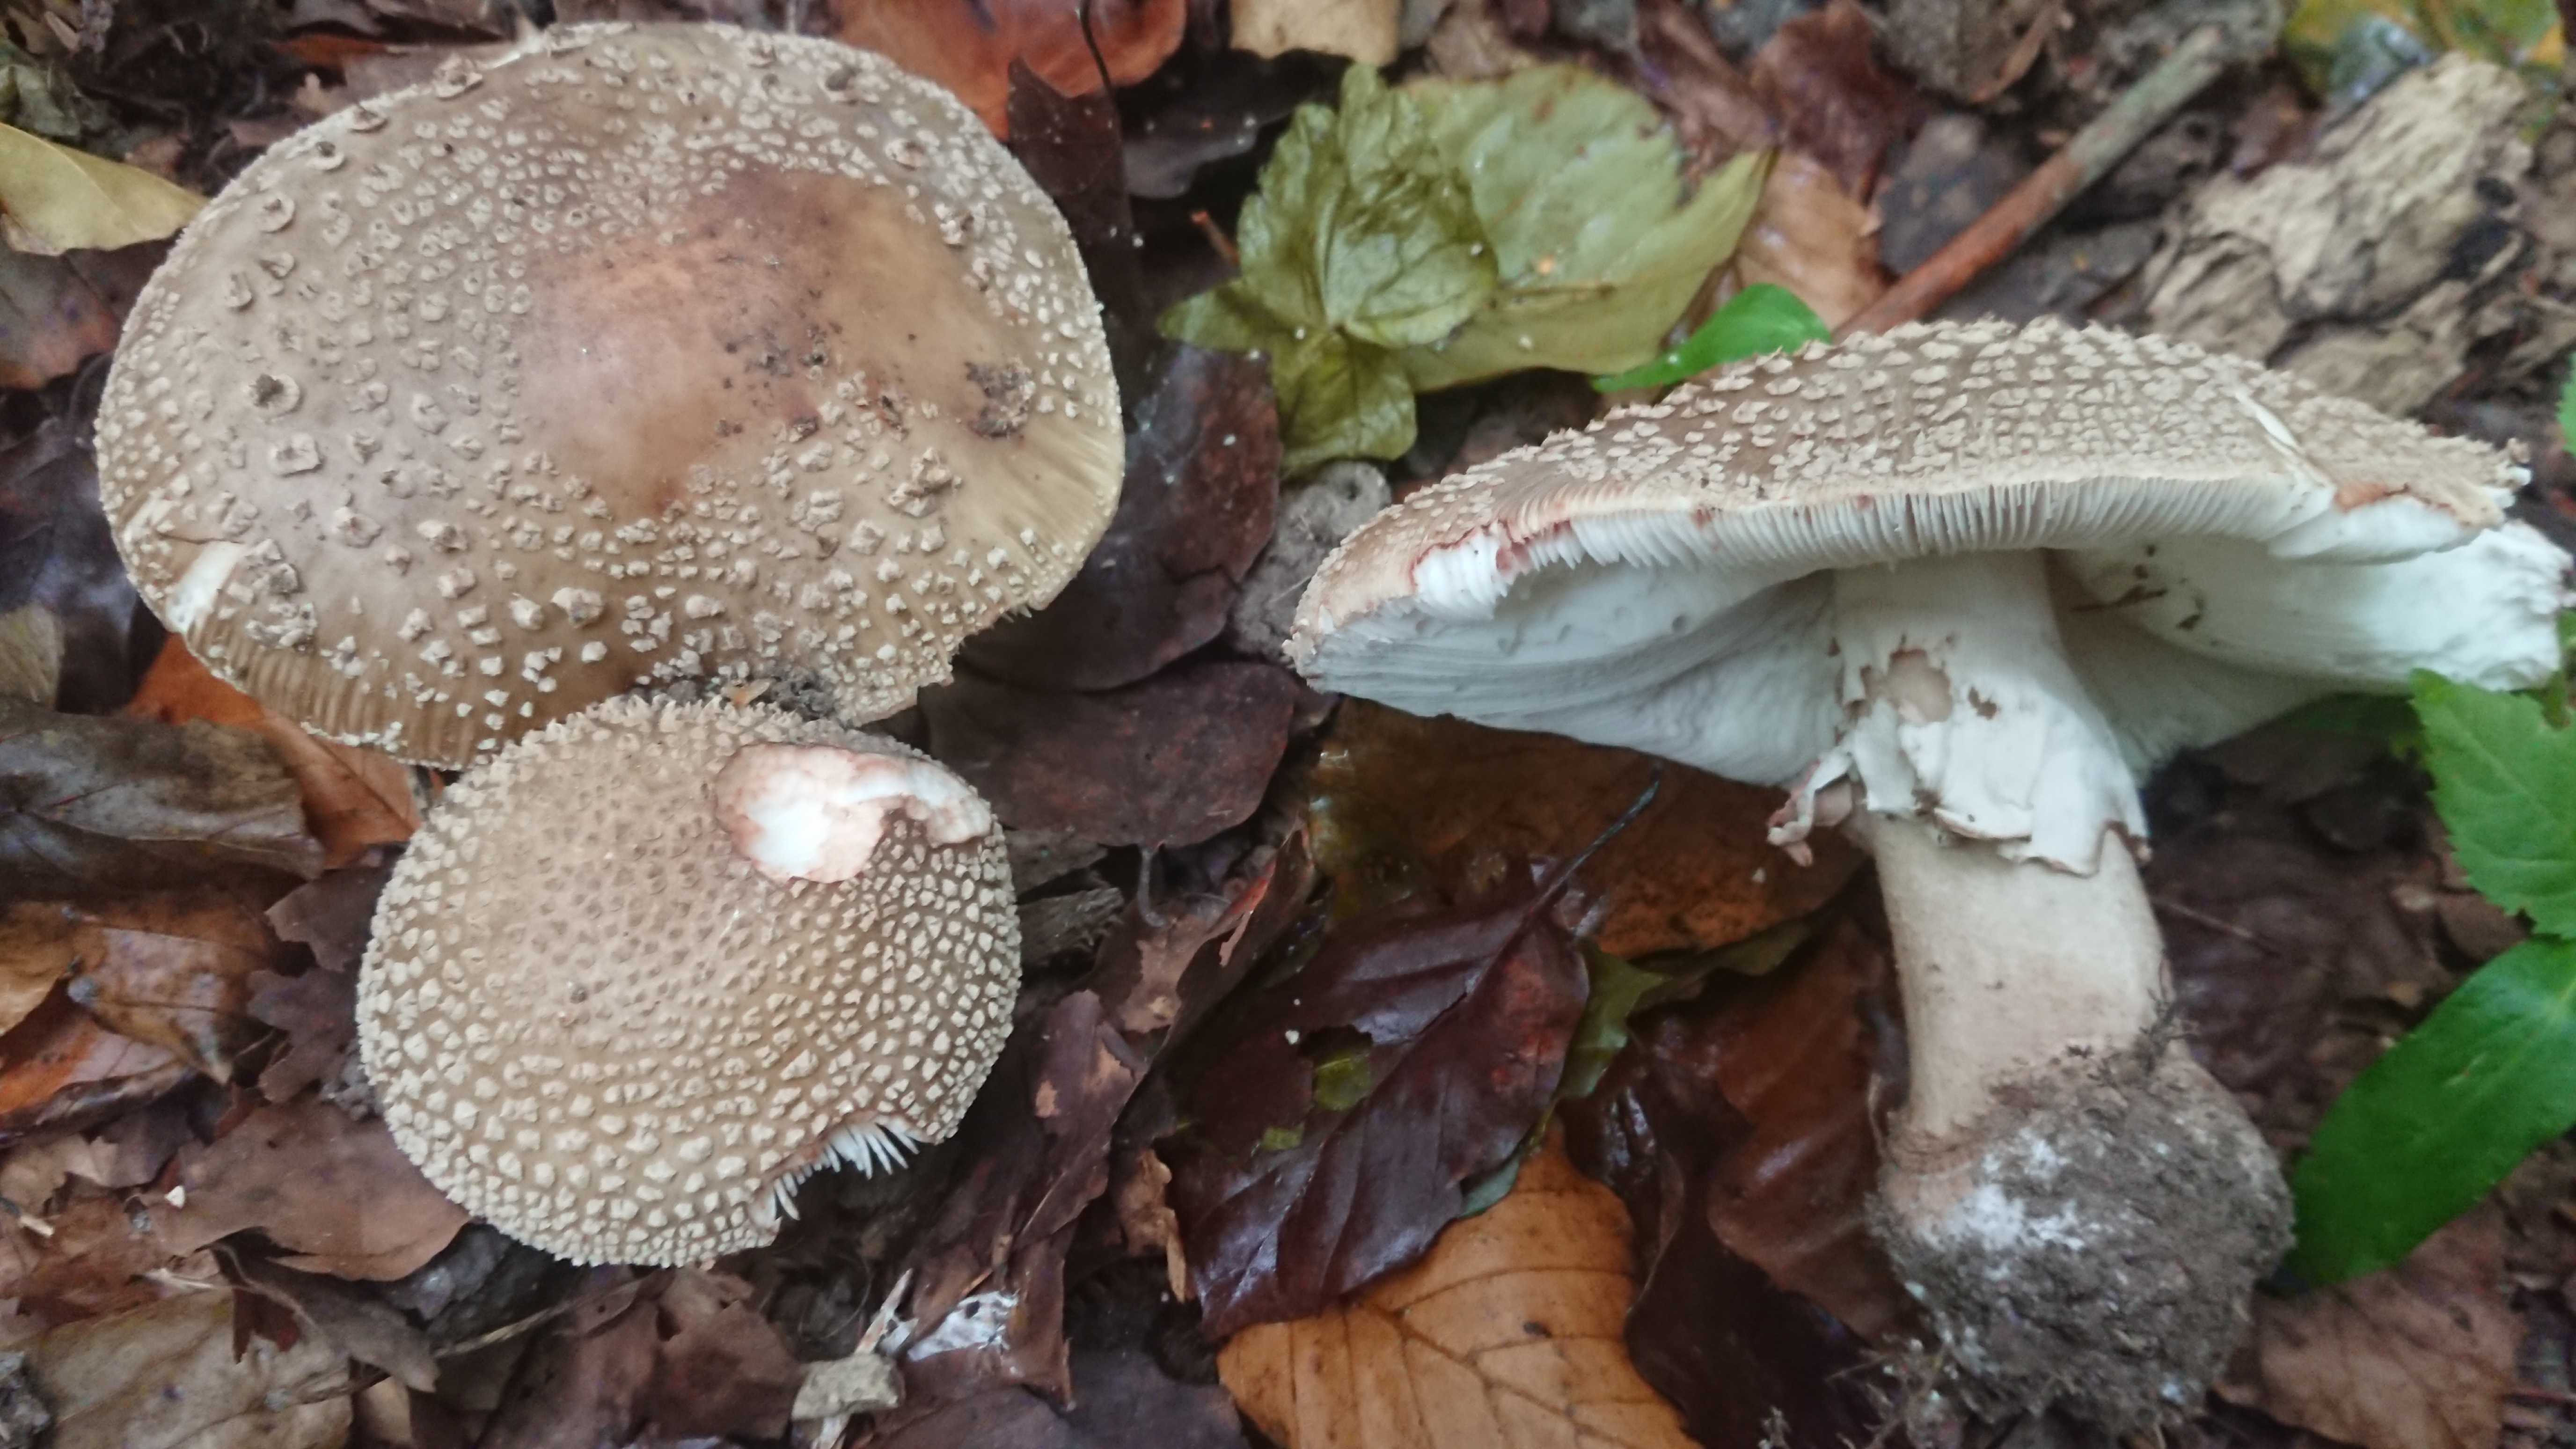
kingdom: Fungi
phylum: Basidiomycota
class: Agaricomycetes
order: Agaricales
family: Amanitaceae
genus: Amanita
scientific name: Amanita rubescens
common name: rødmende fluesvamp
